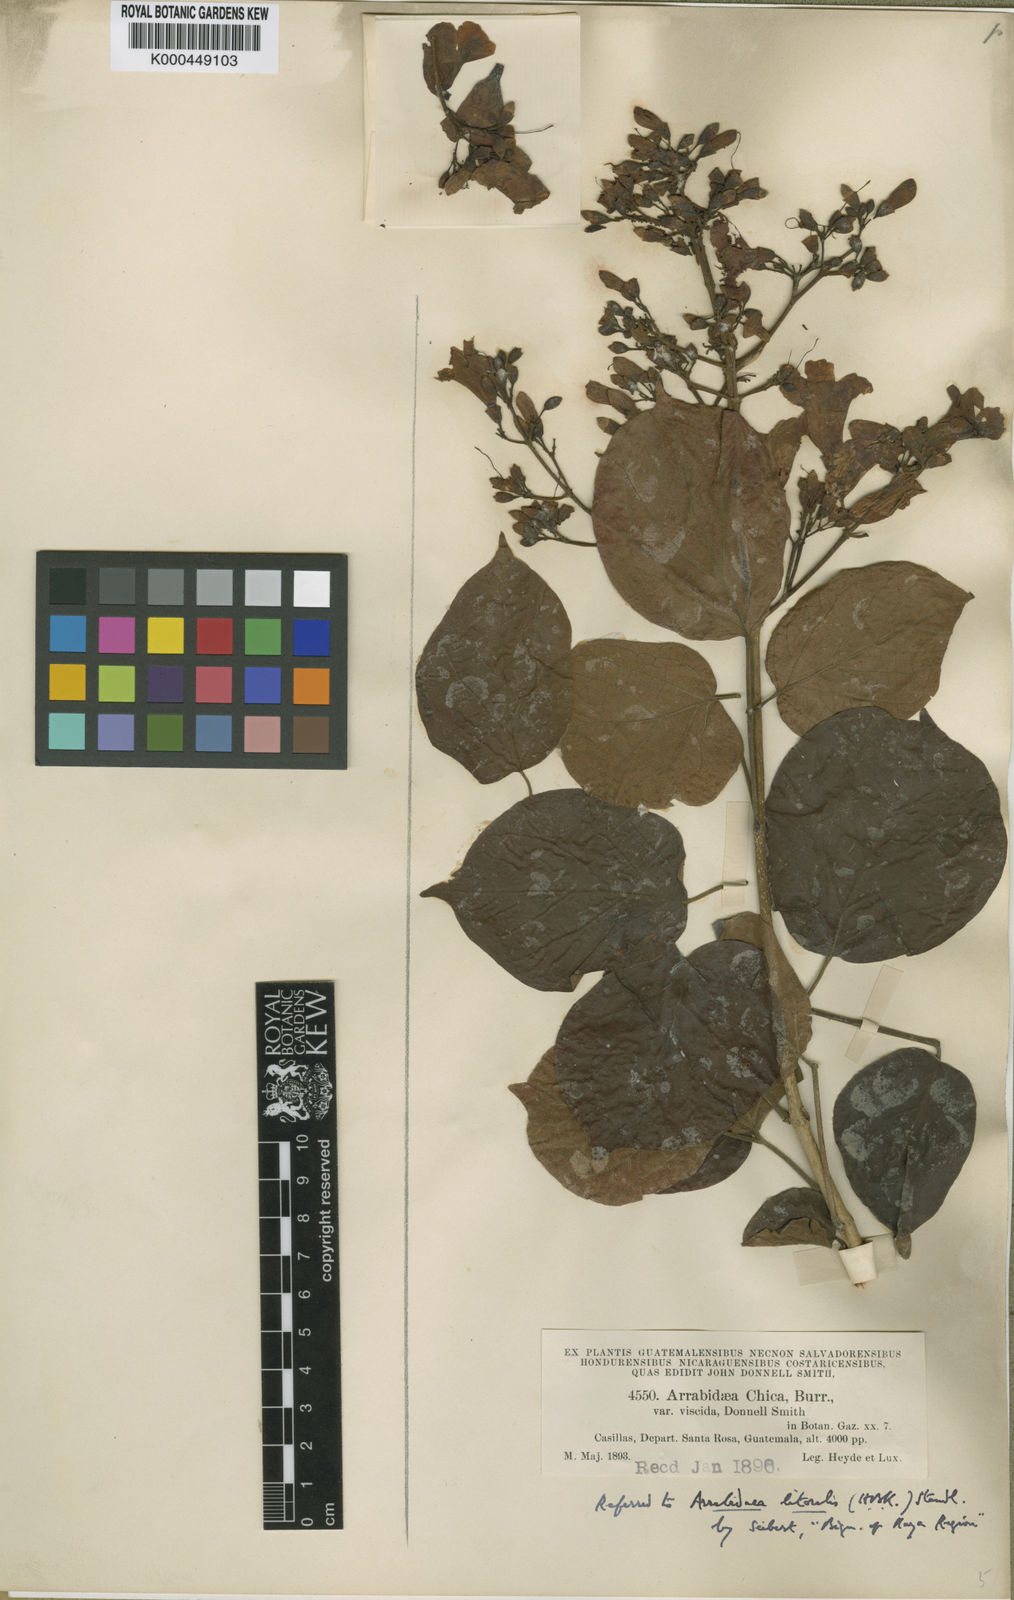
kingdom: Plantae
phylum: Tracheophyta
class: Magnoliopsida
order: Lamiales
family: Bignoniaceae
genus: Fridericia
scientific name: Fridericia viscida
